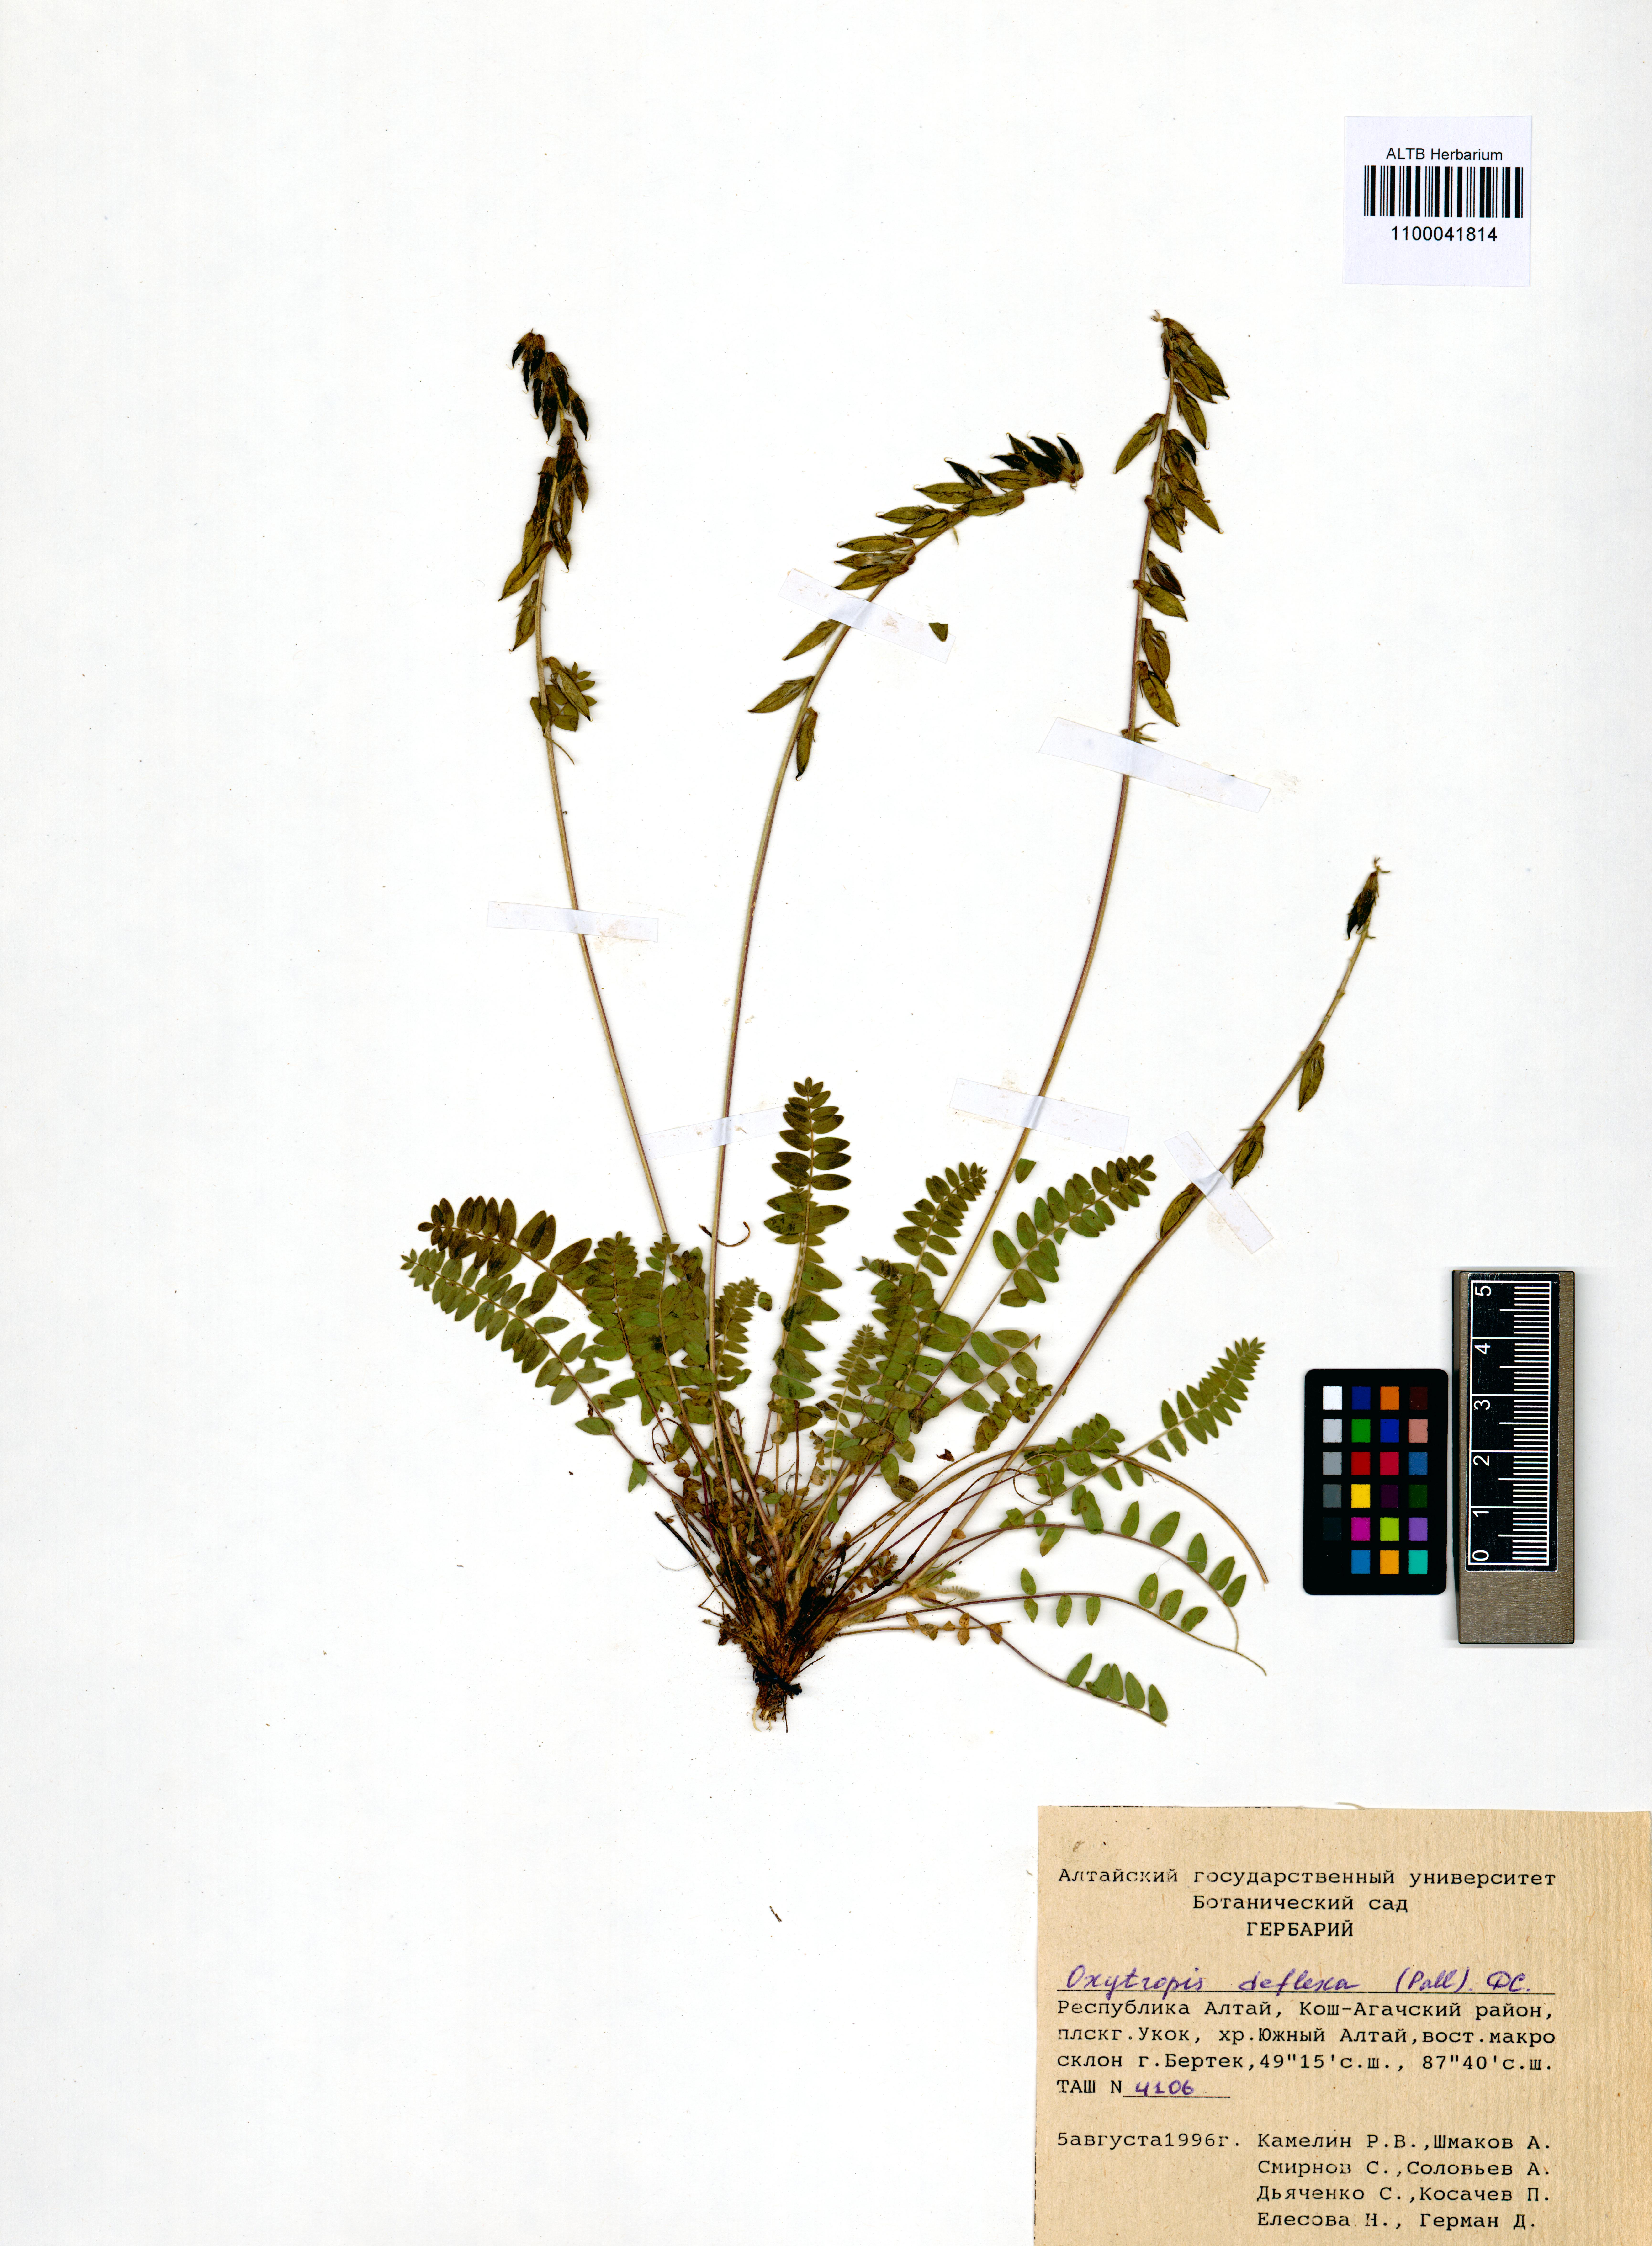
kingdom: Plantae
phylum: Tracheophyta
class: Magnoliopsida
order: Fabales
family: Fabaceae
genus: Oxytropis
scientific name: Oxytropis deflexa
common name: Stemmed oxytrope
